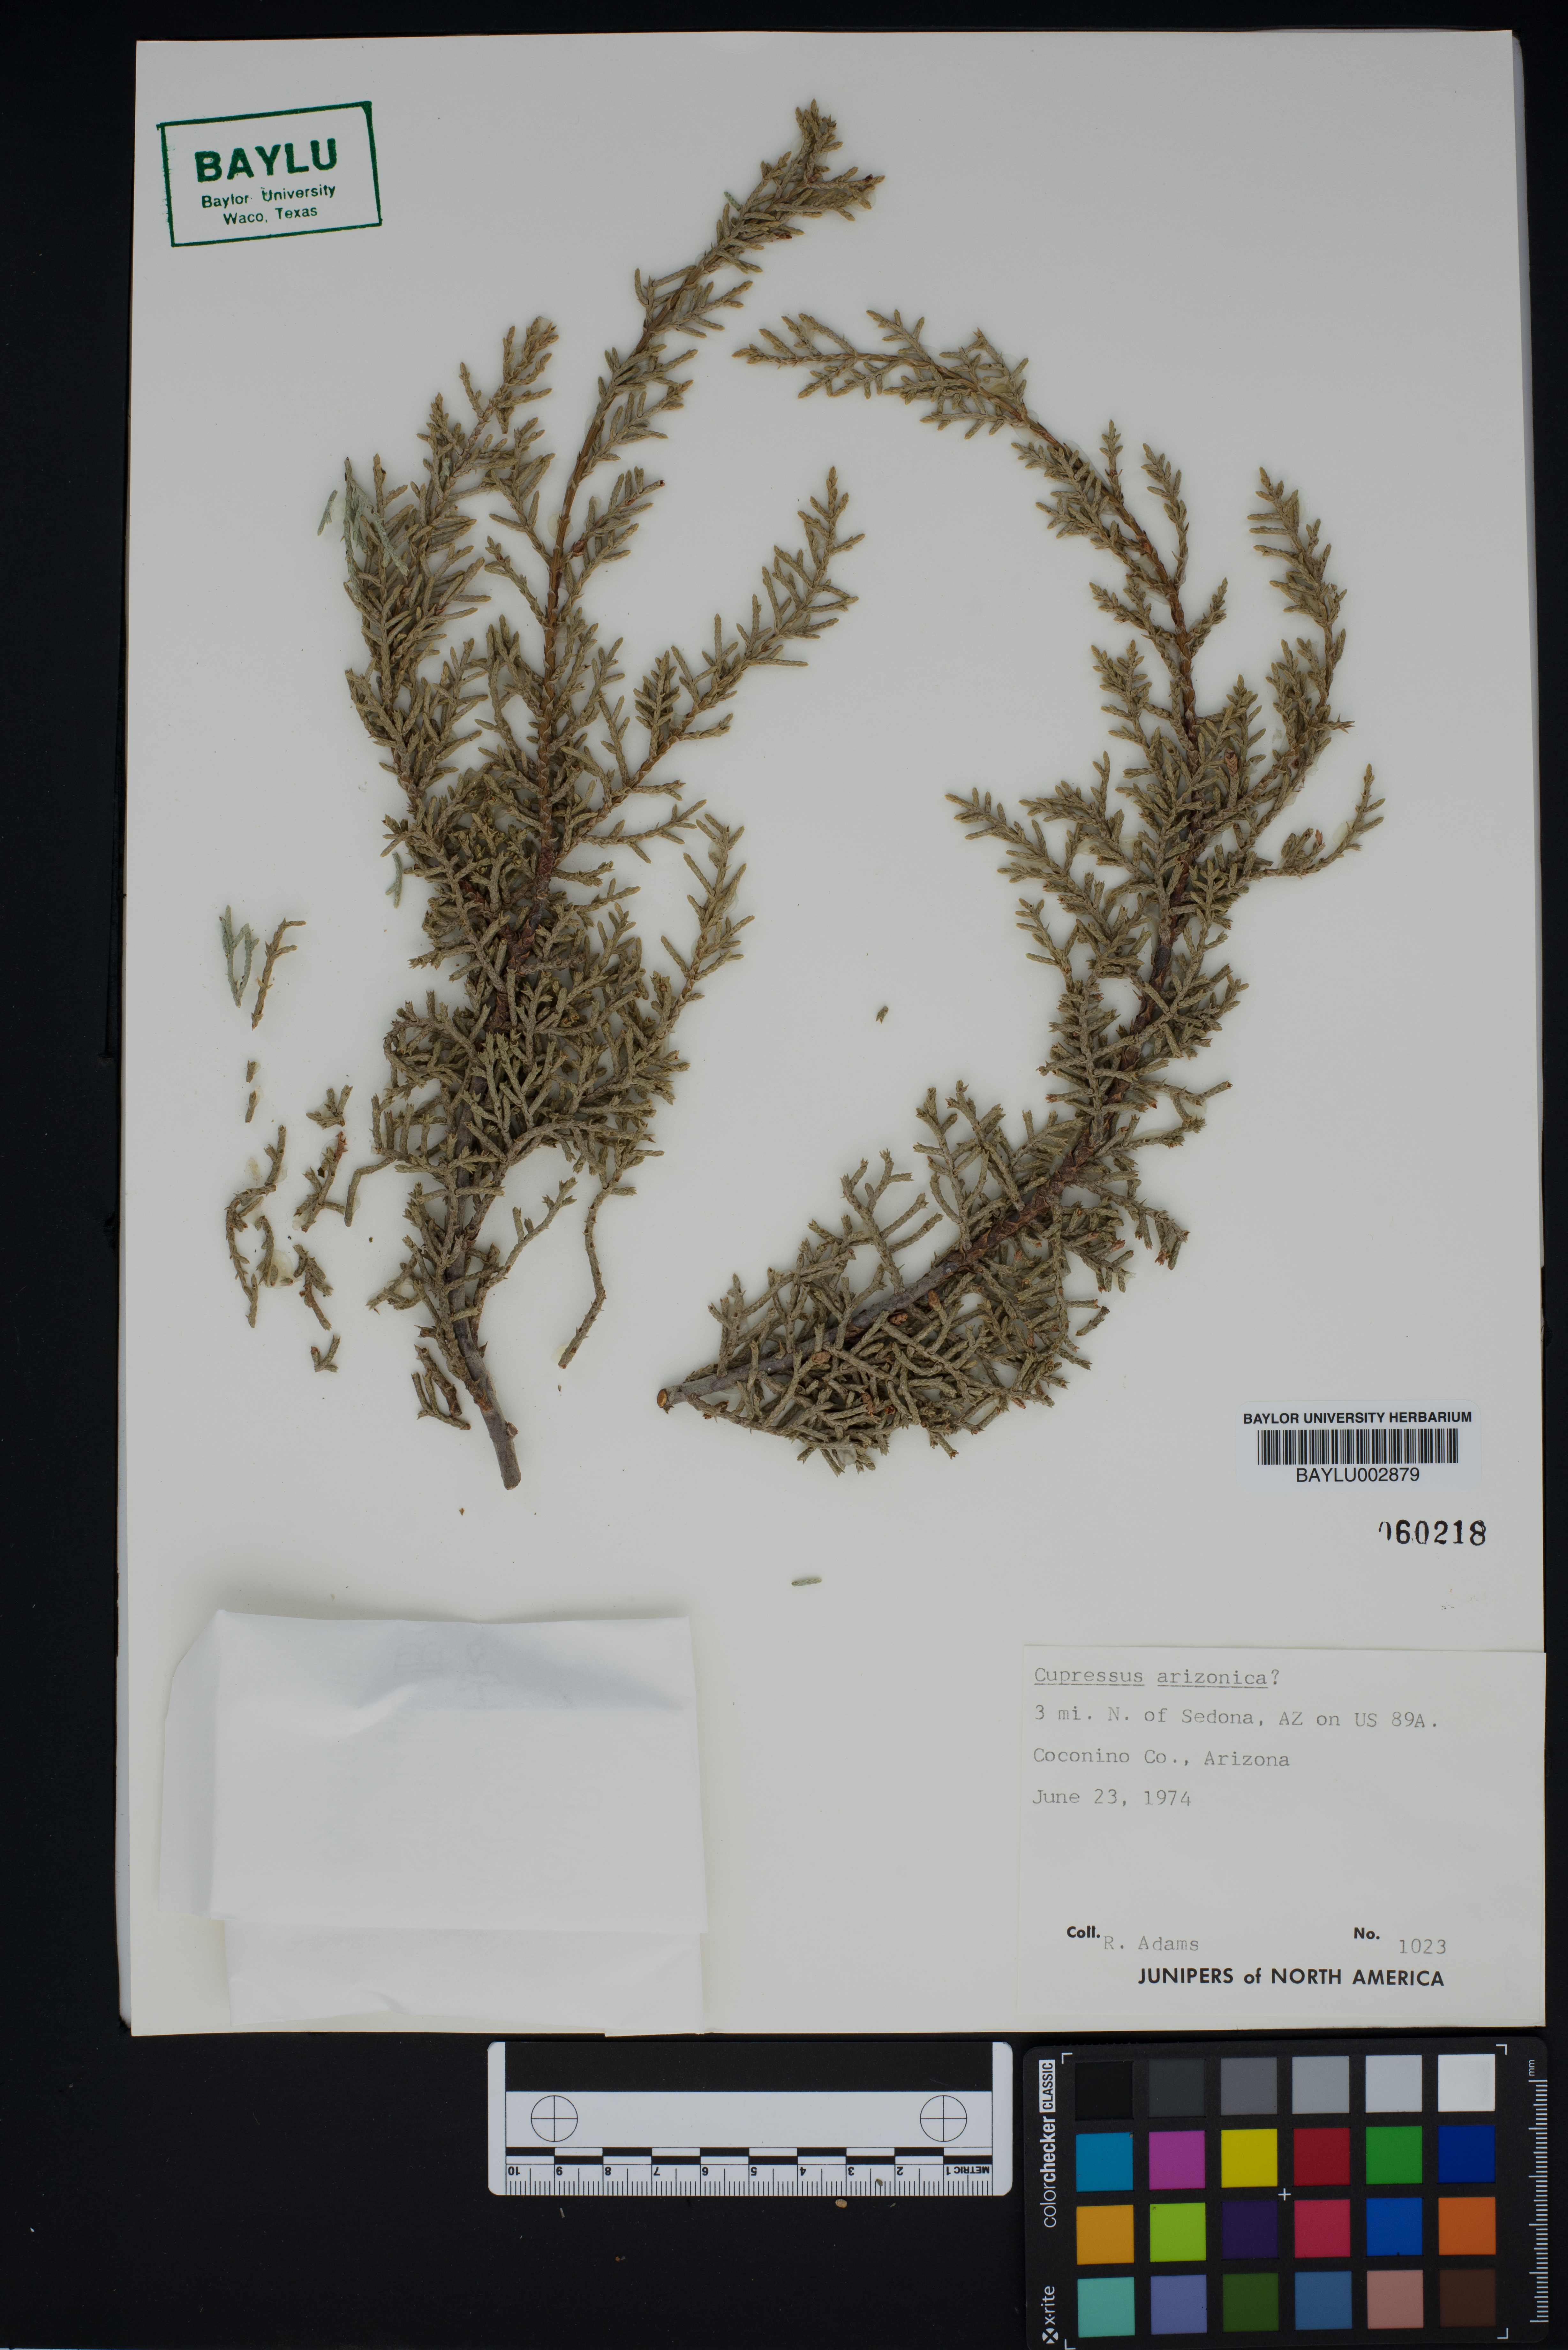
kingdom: Plantae
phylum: Tracheophyta
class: Pinopsida
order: Pinales
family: Cupressaceae
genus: Cupressus
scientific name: Cupressus arizonica
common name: Arizona cypress
